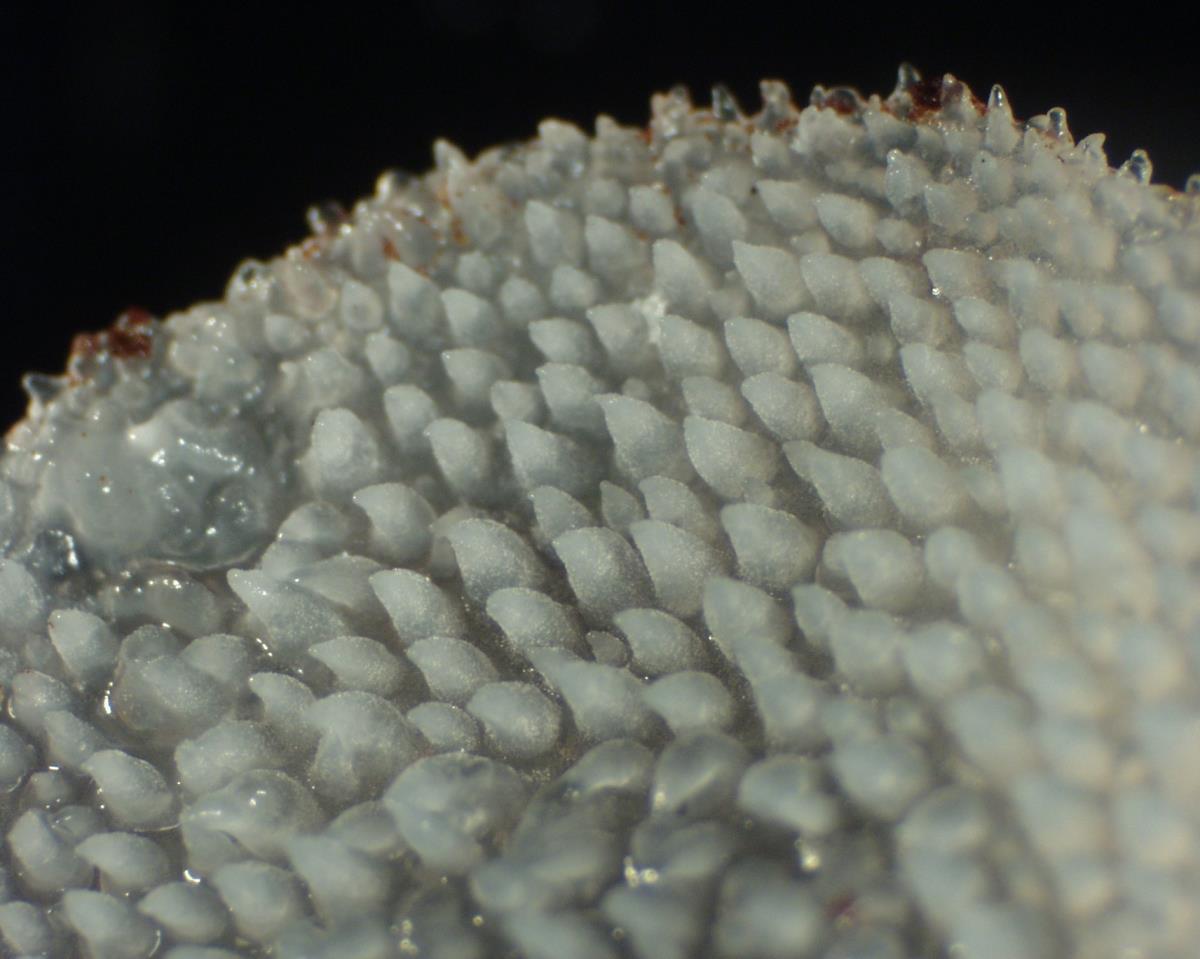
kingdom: Fungi
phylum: Basidiomycota
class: Agaricomycetes
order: Auriculariales
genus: Pseudohydnum
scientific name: Pseudohydnum gelatinosum
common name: Jelly tongue
